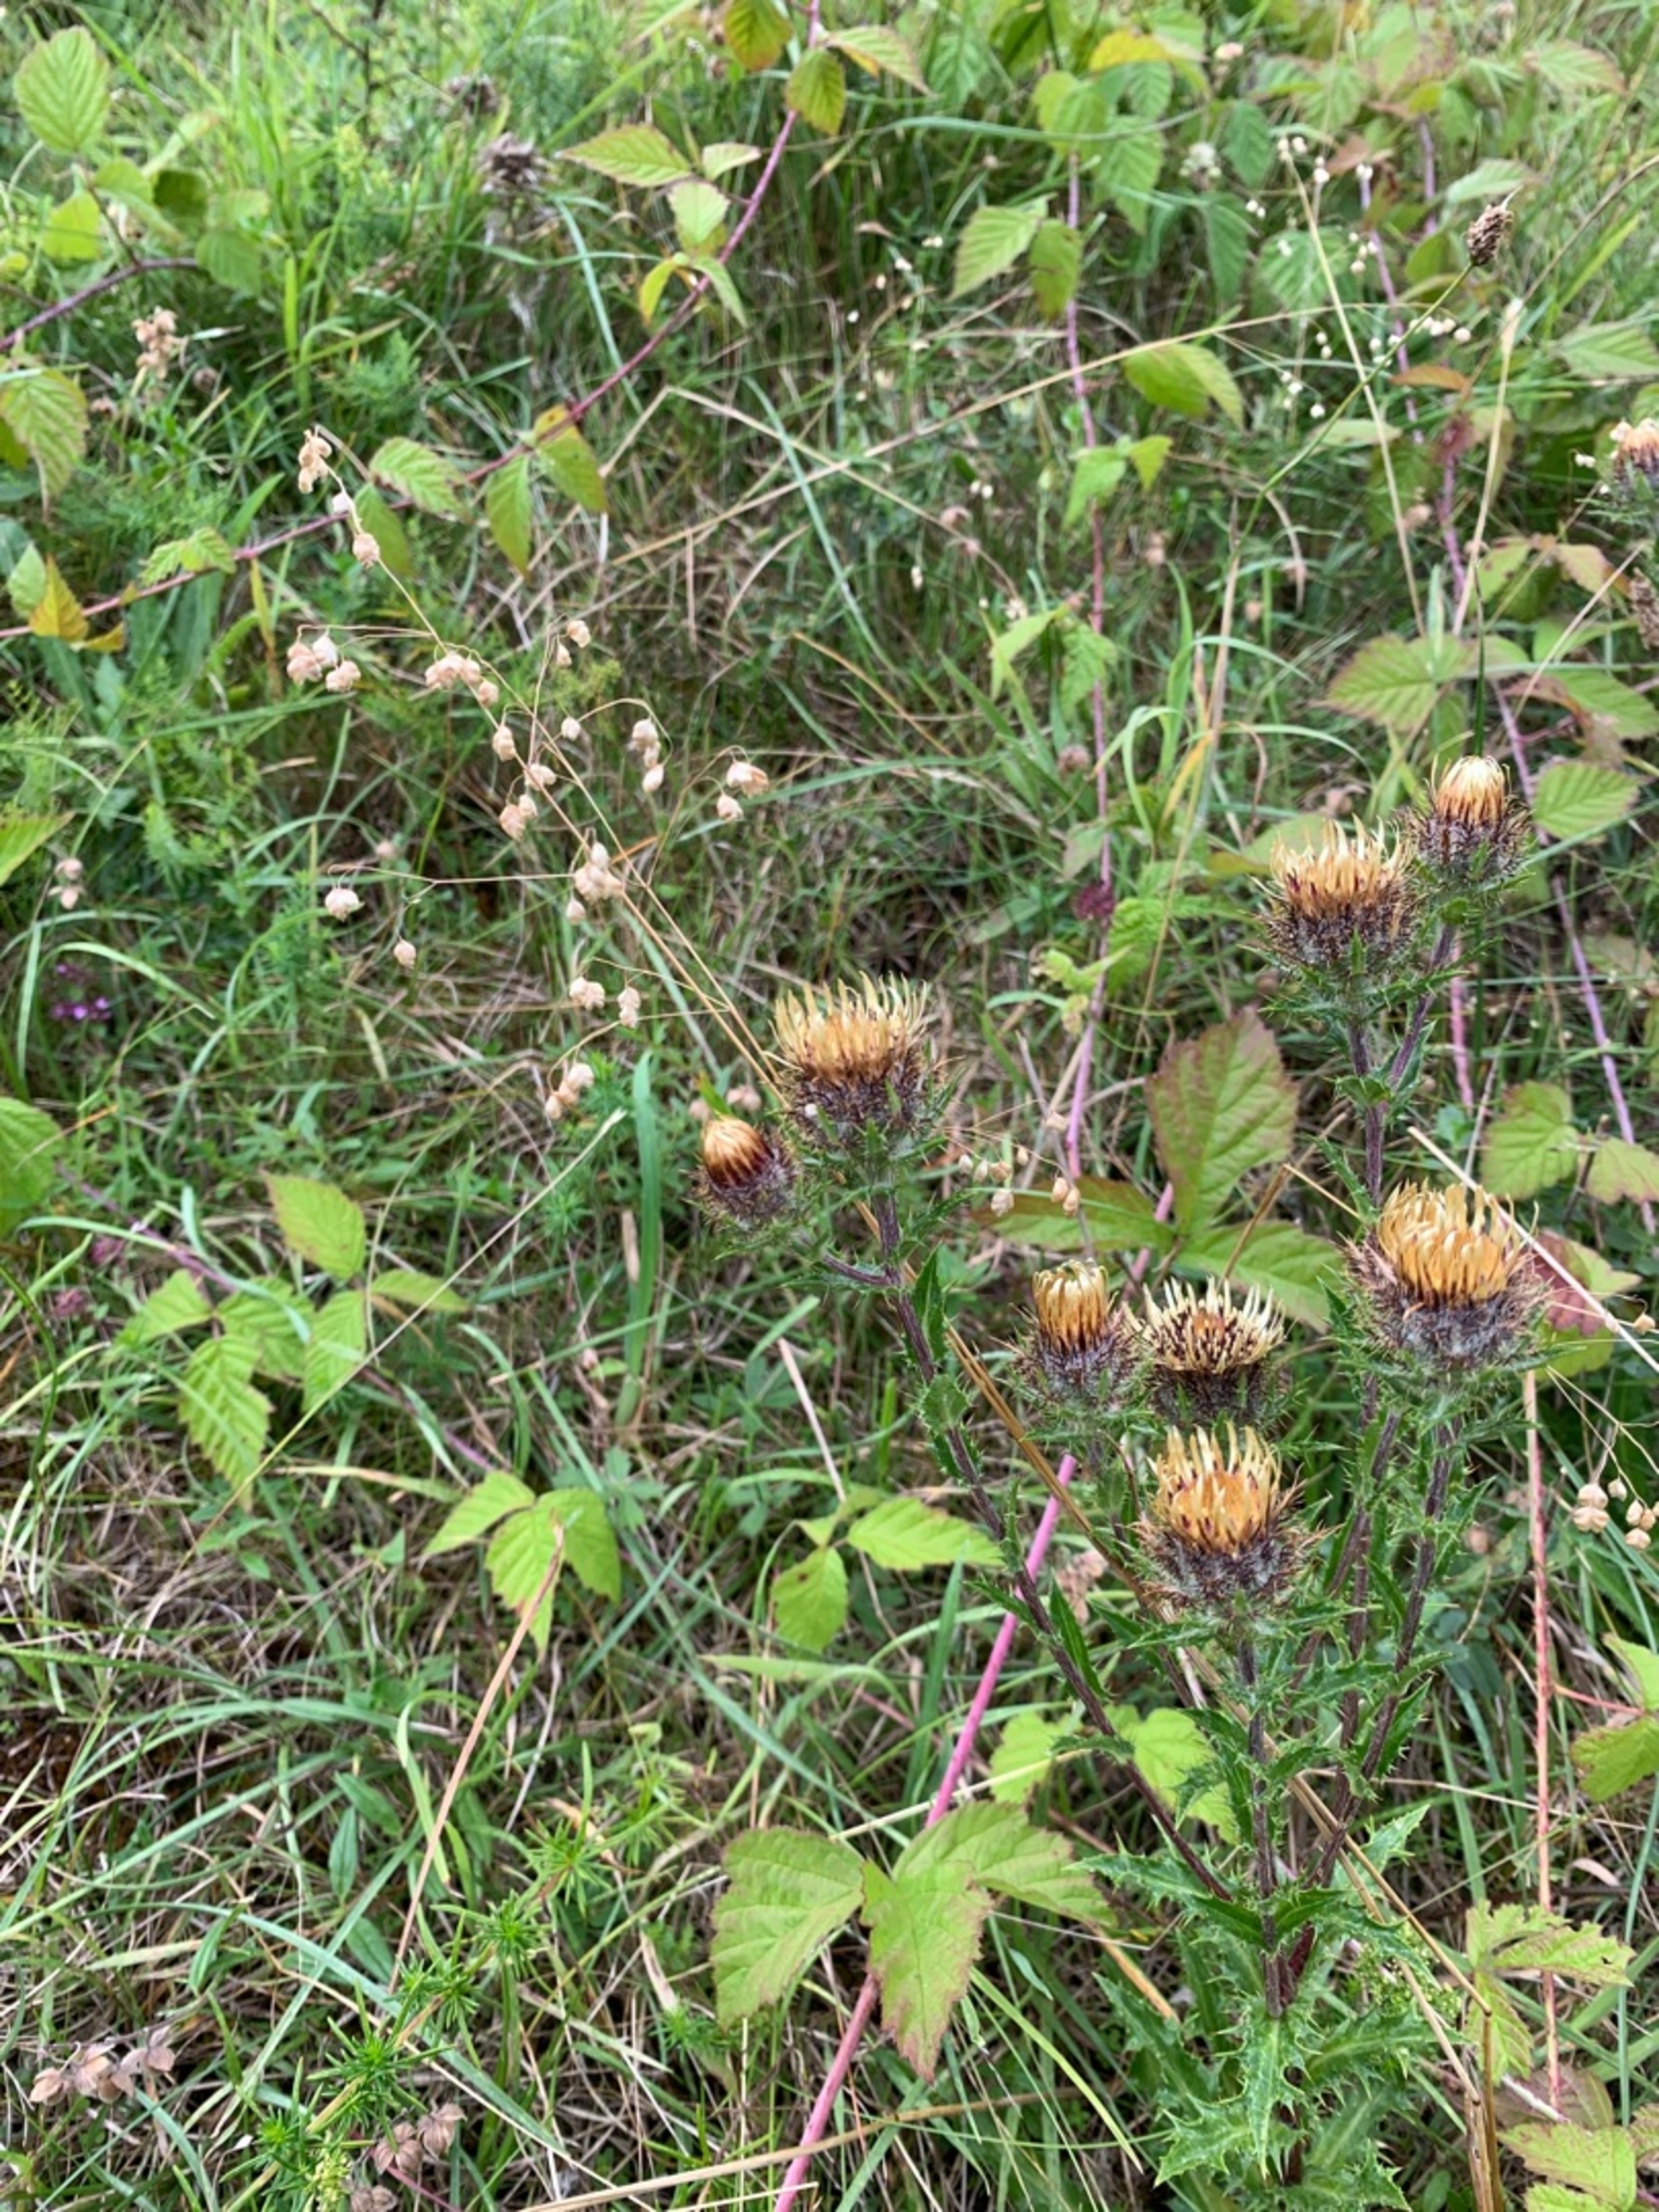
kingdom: Plantae
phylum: Tracheophyta
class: Magnoliopsida
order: Asterales
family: Asteraceae
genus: Carlina
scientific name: Carlina vulgaris
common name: Bakketidsel
